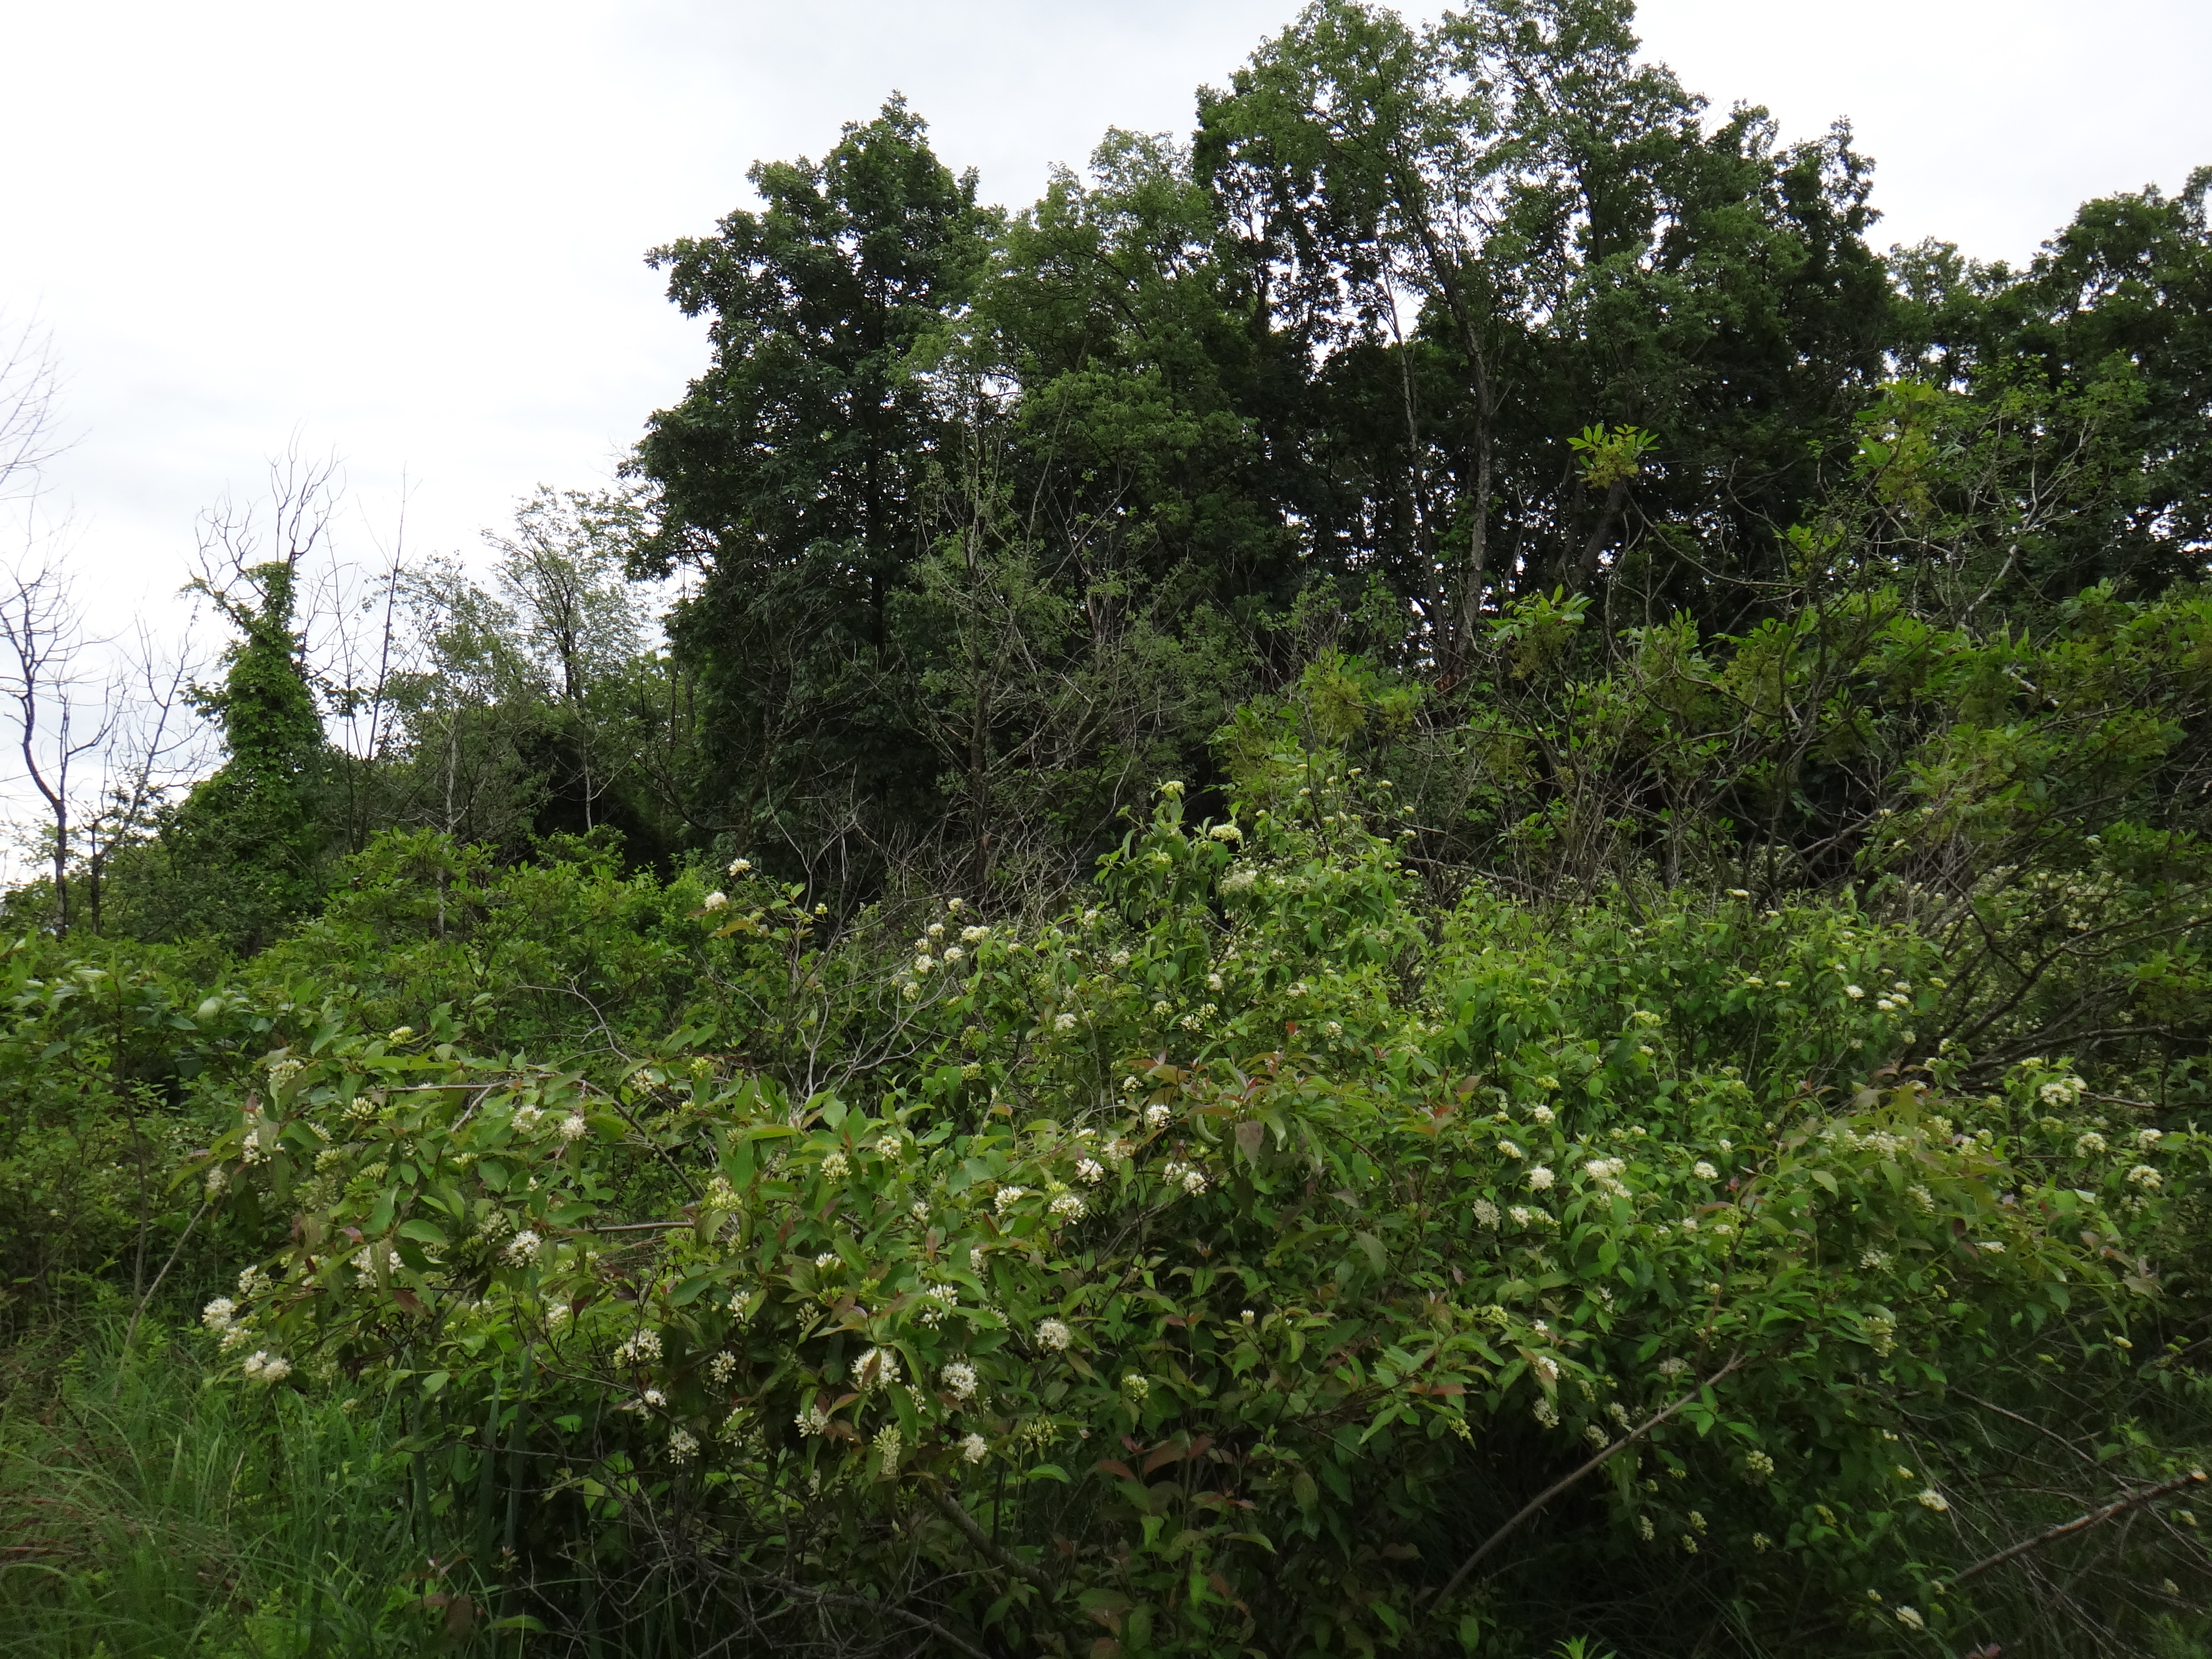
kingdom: Plantae
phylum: Tracheophyta
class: Magnoliopsida
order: Cornales
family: Cornaceae
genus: Cornus
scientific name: Cornus amomum
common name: Silky dogwood
